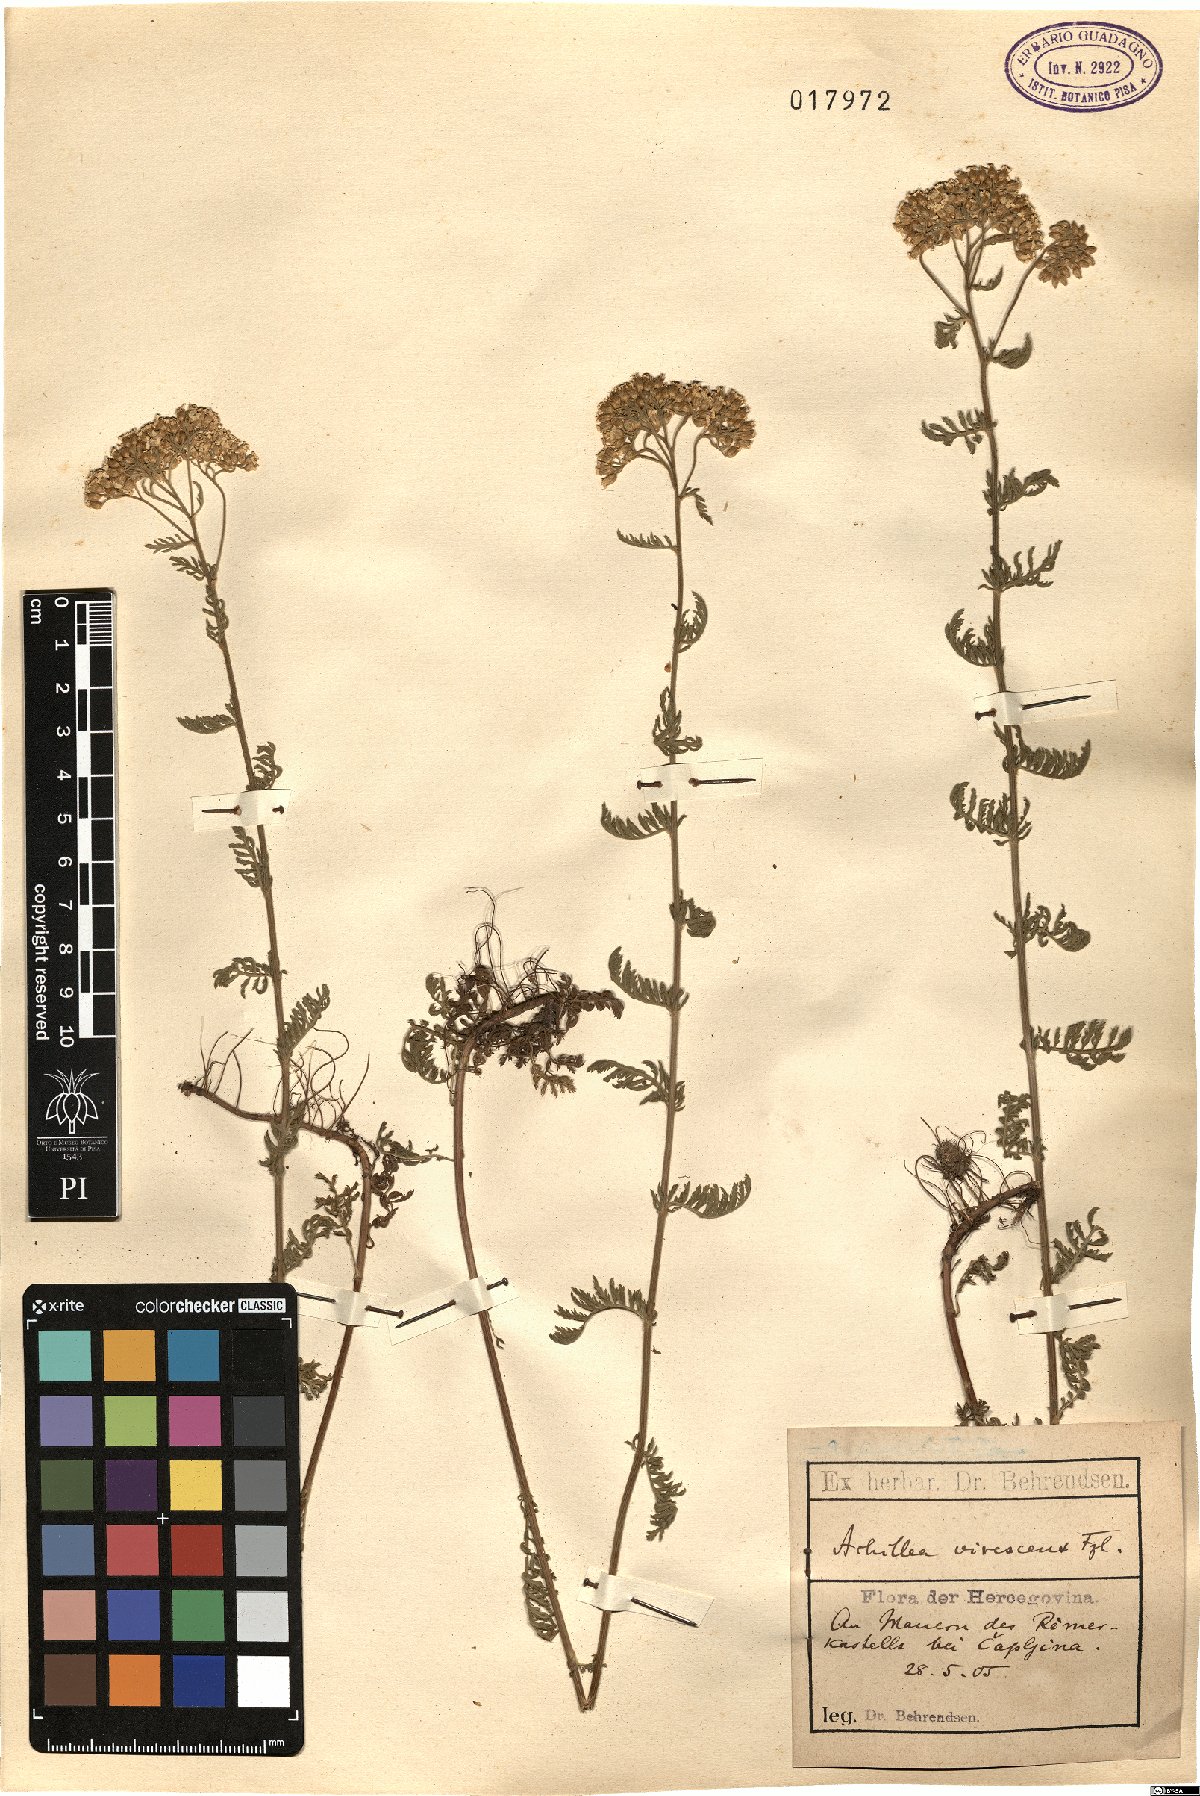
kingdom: Plantae
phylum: Tracheophyta
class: Magnoliopsida
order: Asterales
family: Asteraceae
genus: Achillea
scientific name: Achillea virescens
